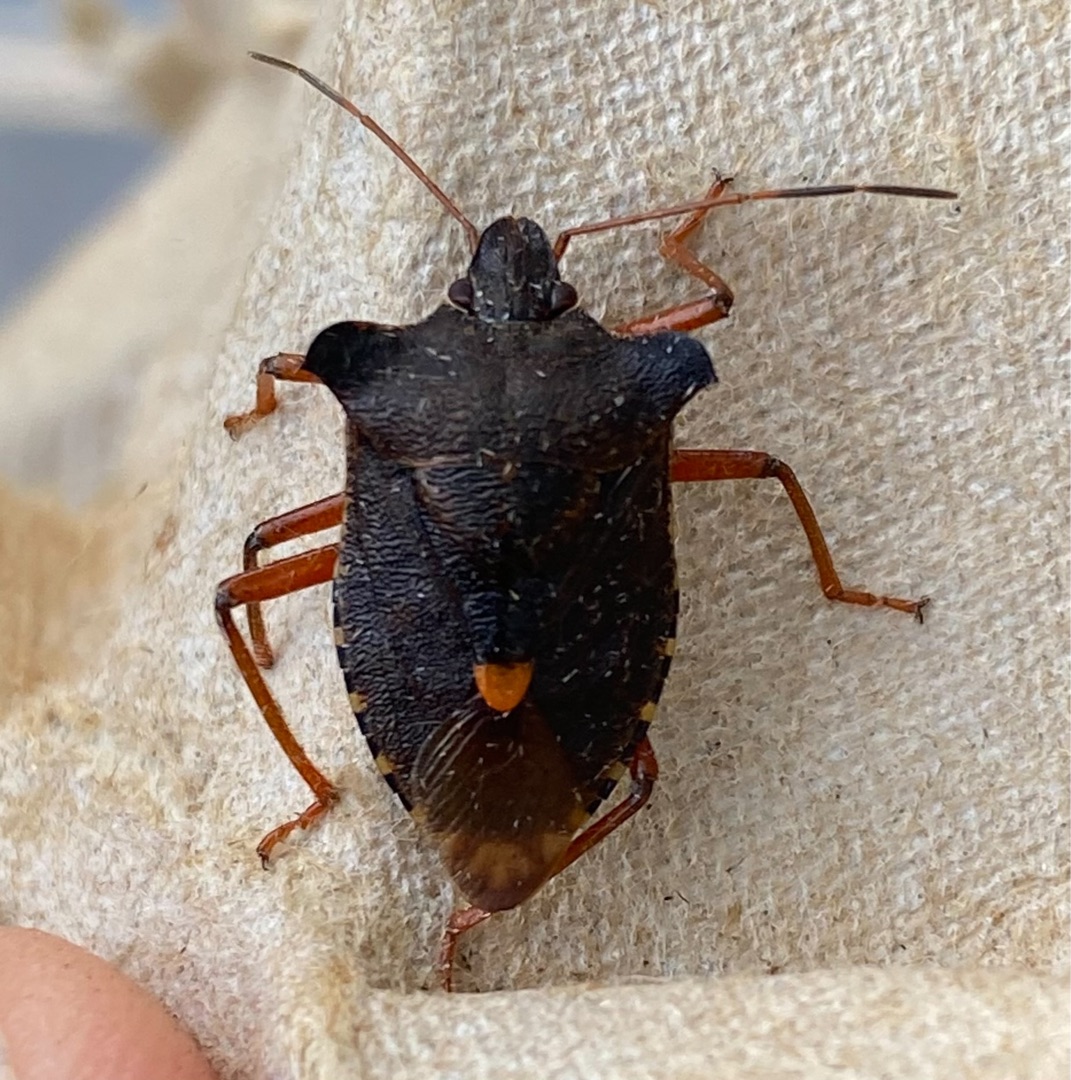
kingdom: Animalia
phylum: Arthropoda
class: Insecta
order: Hemiptera
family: Pentatomidae
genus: Pentatoma
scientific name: Pentatoma rufipes
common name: Rødbenet bredtæge
